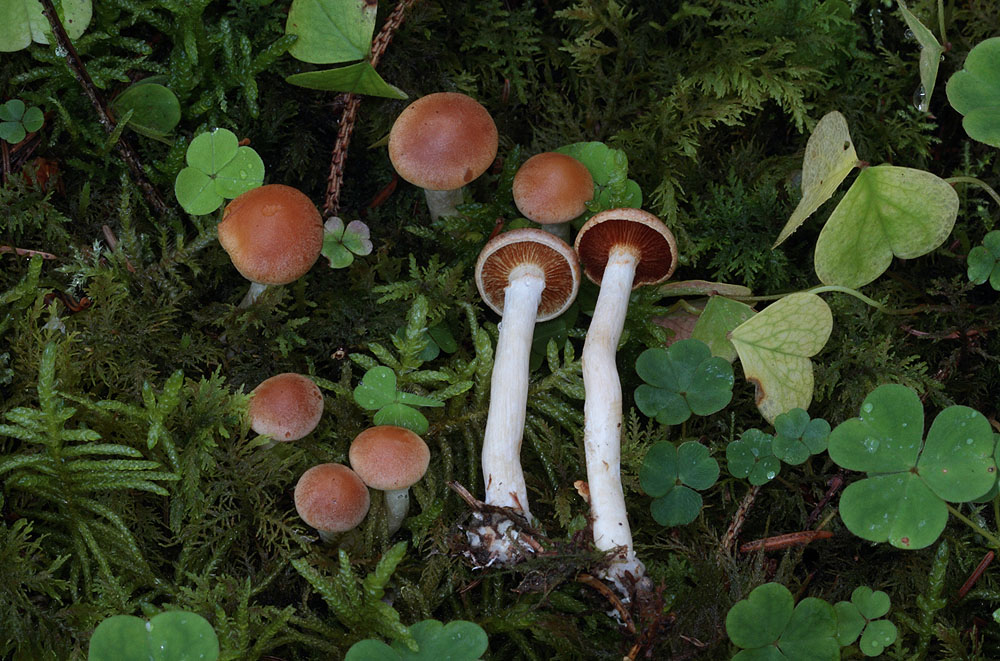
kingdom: Fungi
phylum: Basidiomycota
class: Agaricomycetes
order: Agaricales
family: Hymenogastraceae
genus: Gymnopilus
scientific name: Gymnopilus penetrans
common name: plettet flammehat
